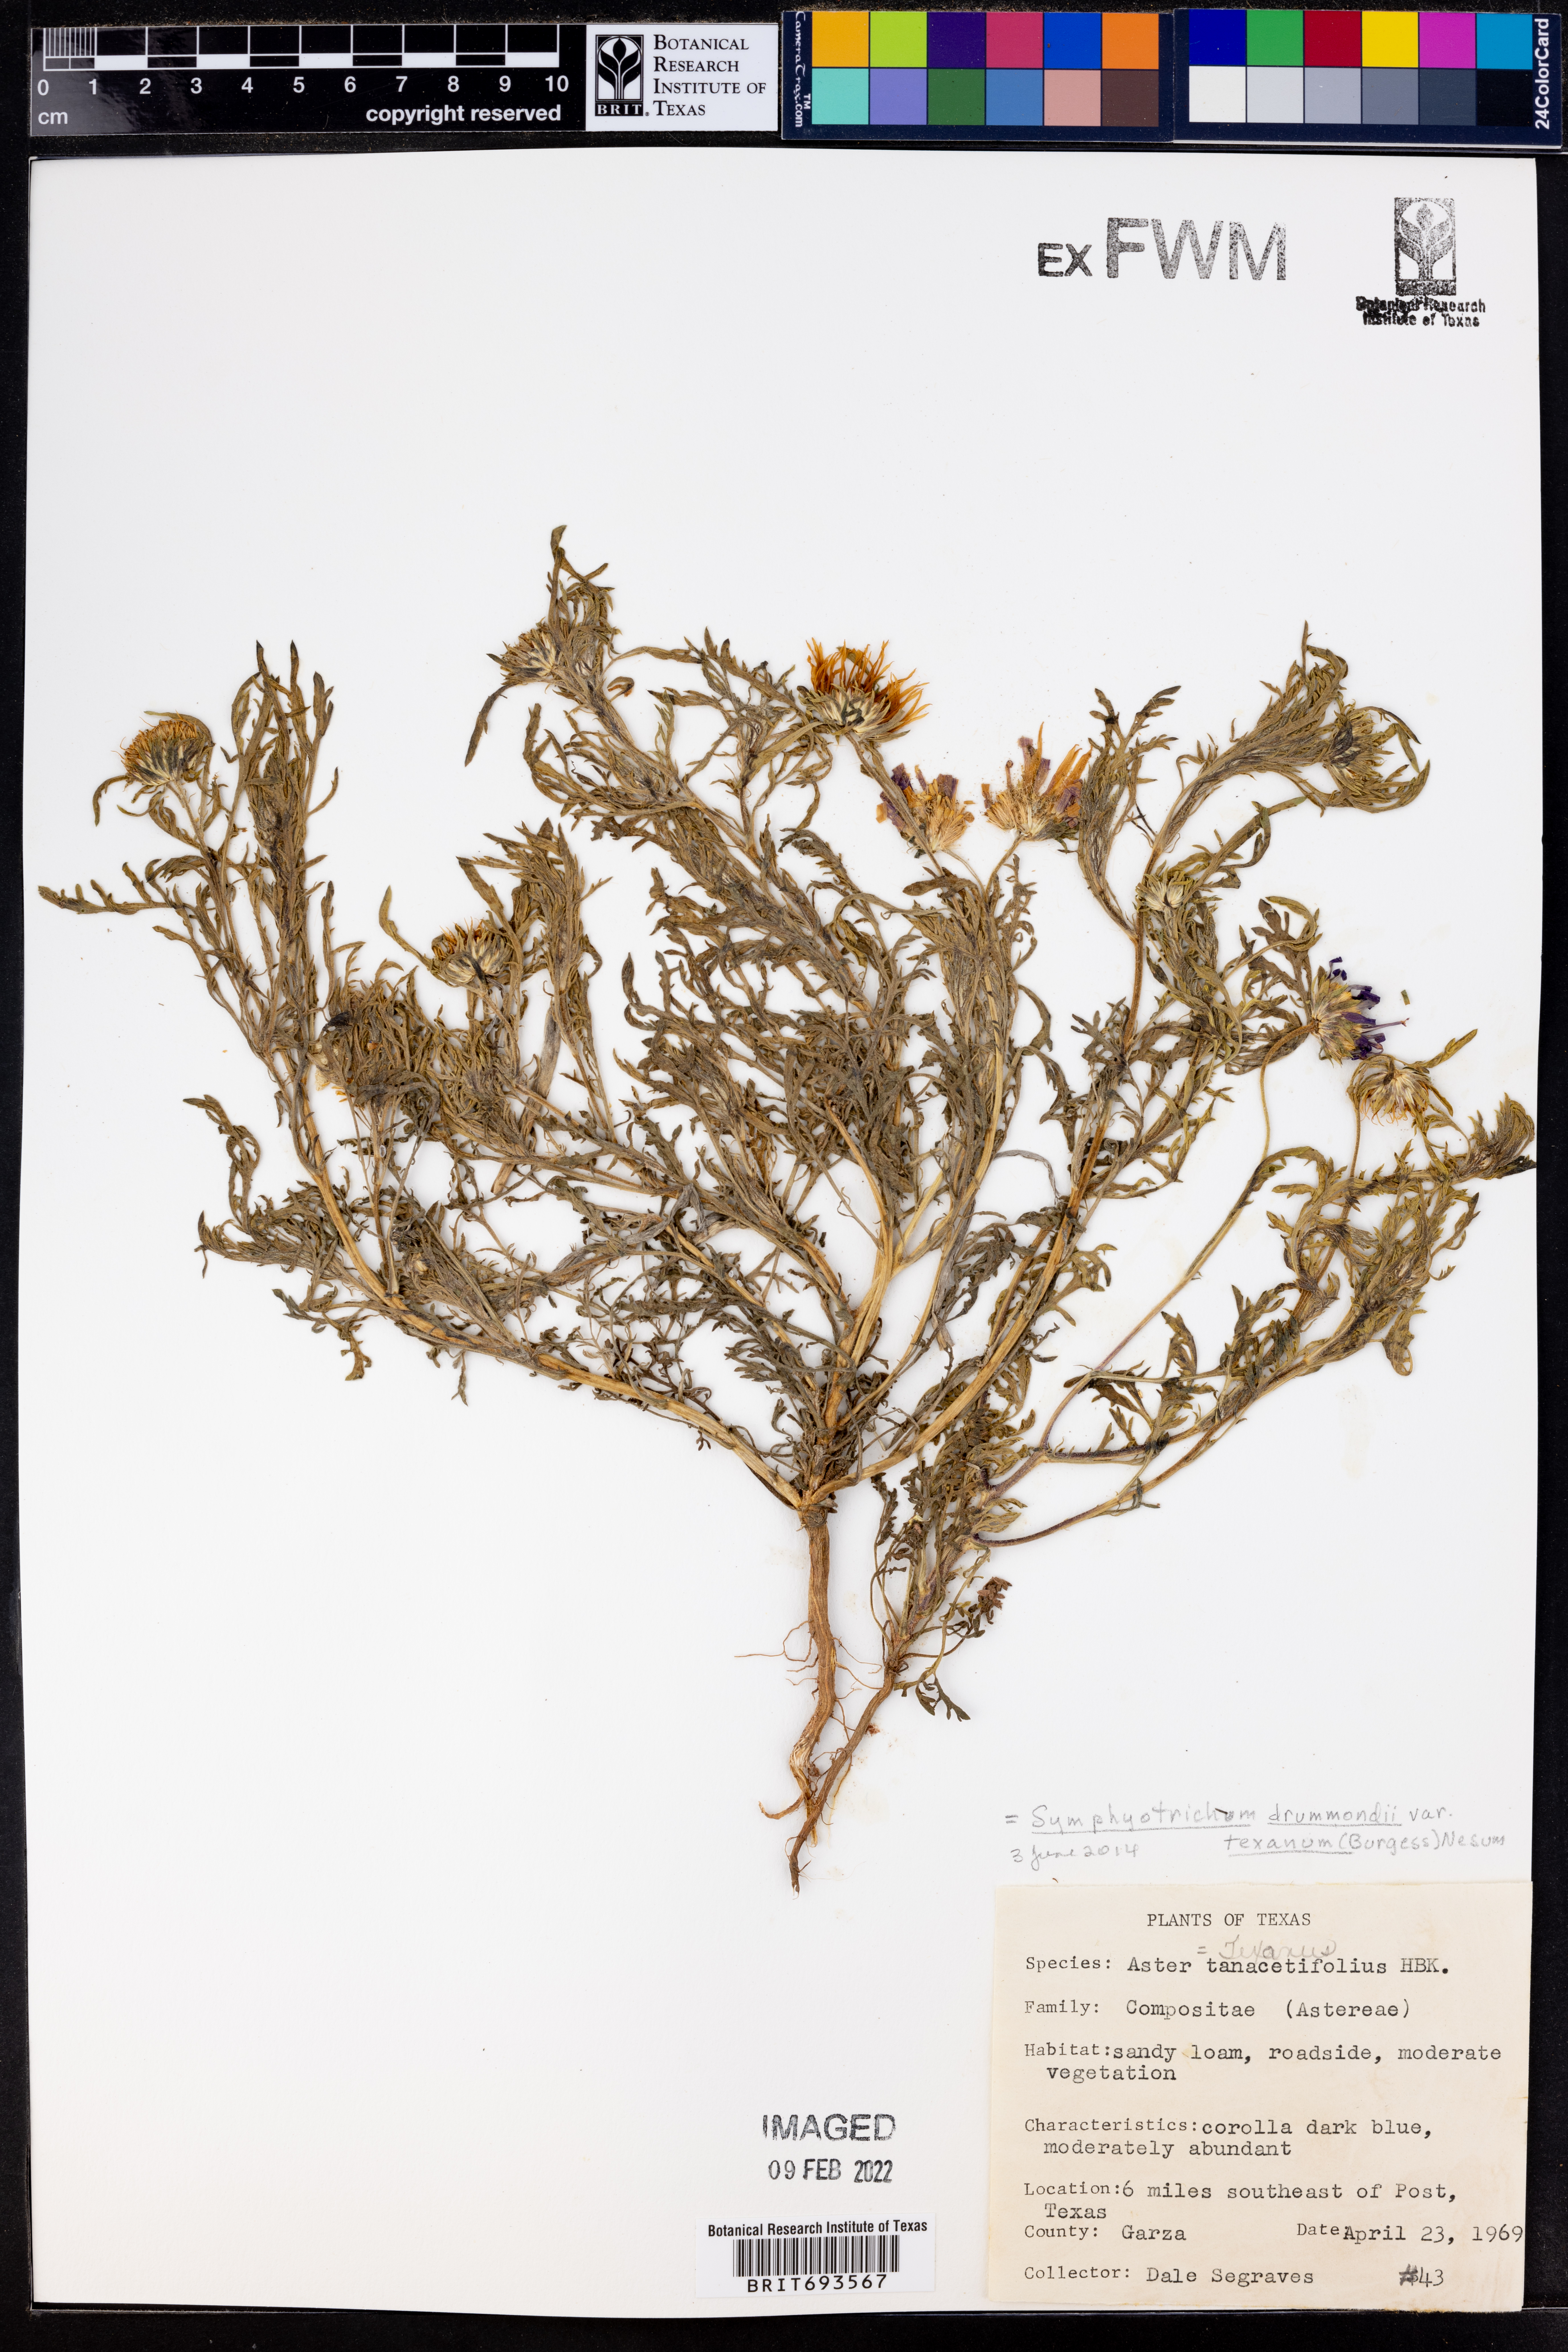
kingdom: Plantae
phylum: Tracheophyta
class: Magnoliopsida
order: Asterales
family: Asteraceae
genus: Symphyotrichum
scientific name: Symphyotrichum drummondii
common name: Drummond's aster
